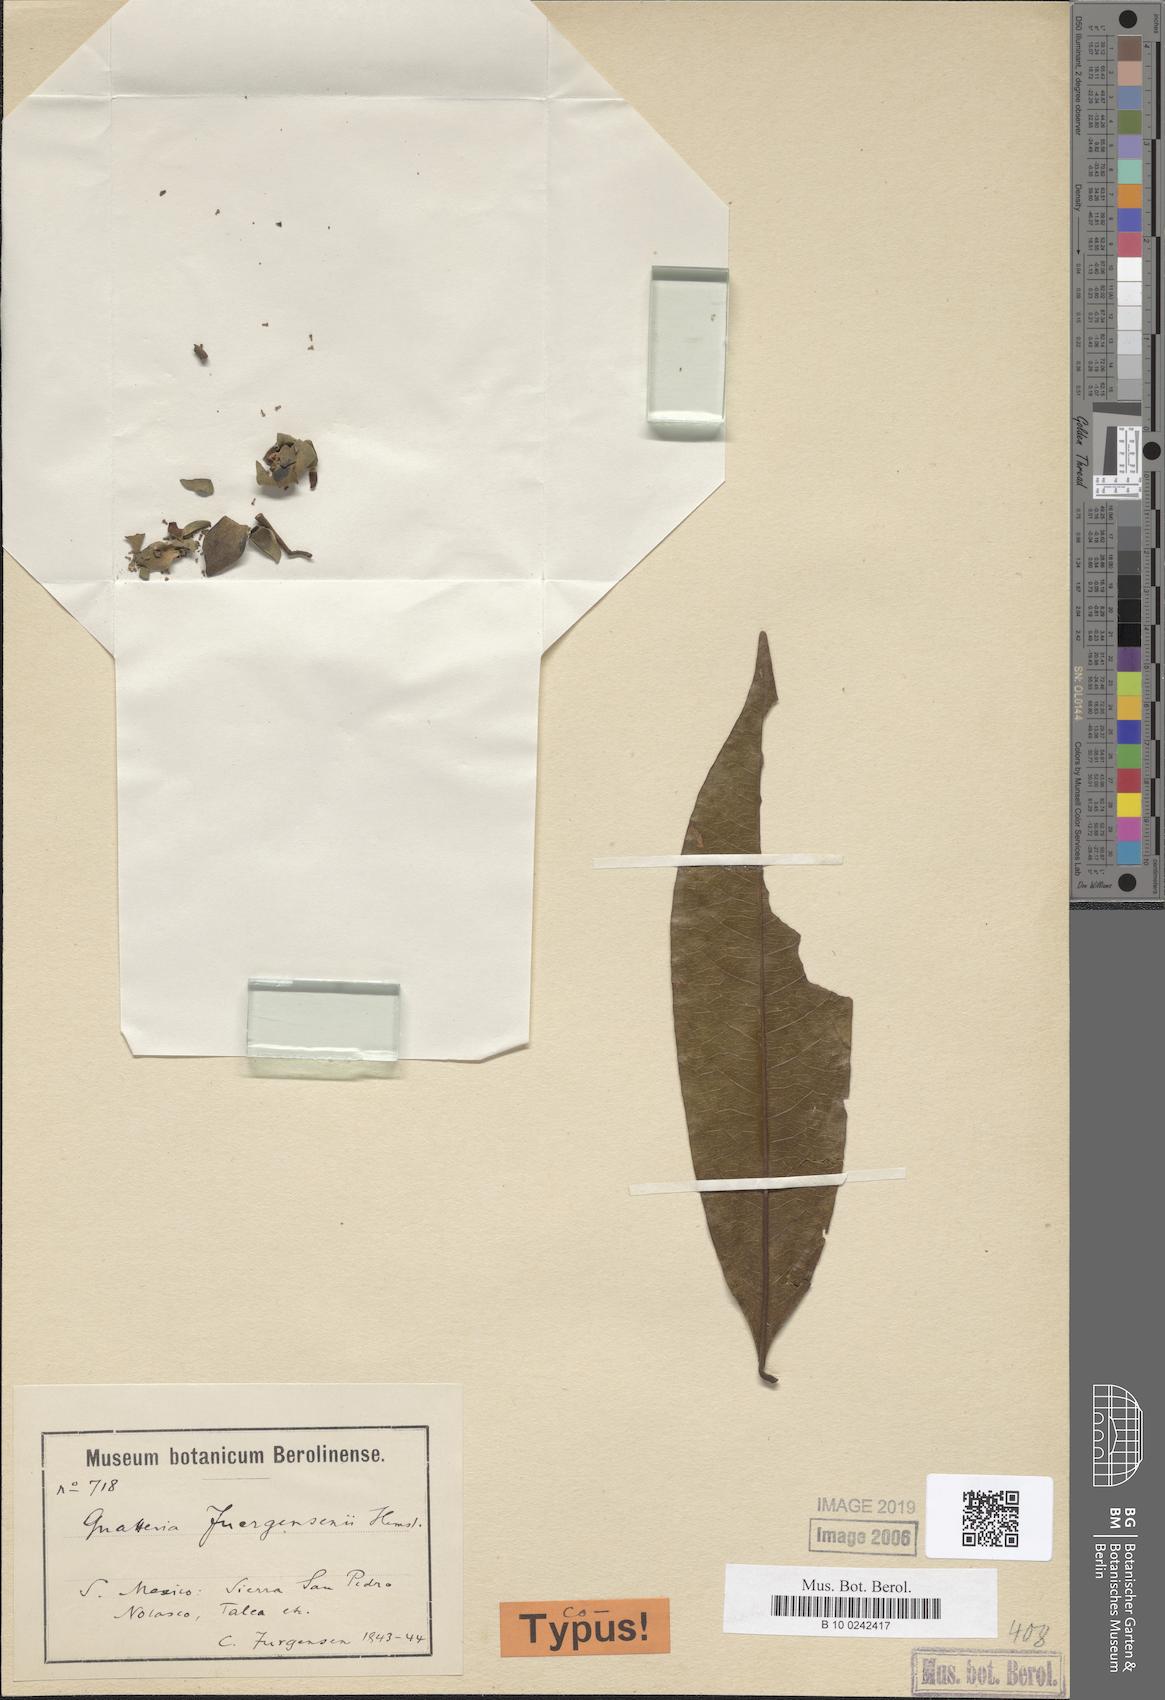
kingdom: Plantae
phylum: Tracheophyta
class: Magnoliopsida
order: Magnoliales
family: Annonaceae
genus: Guatteria
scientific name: Guatteria jurgensenii
